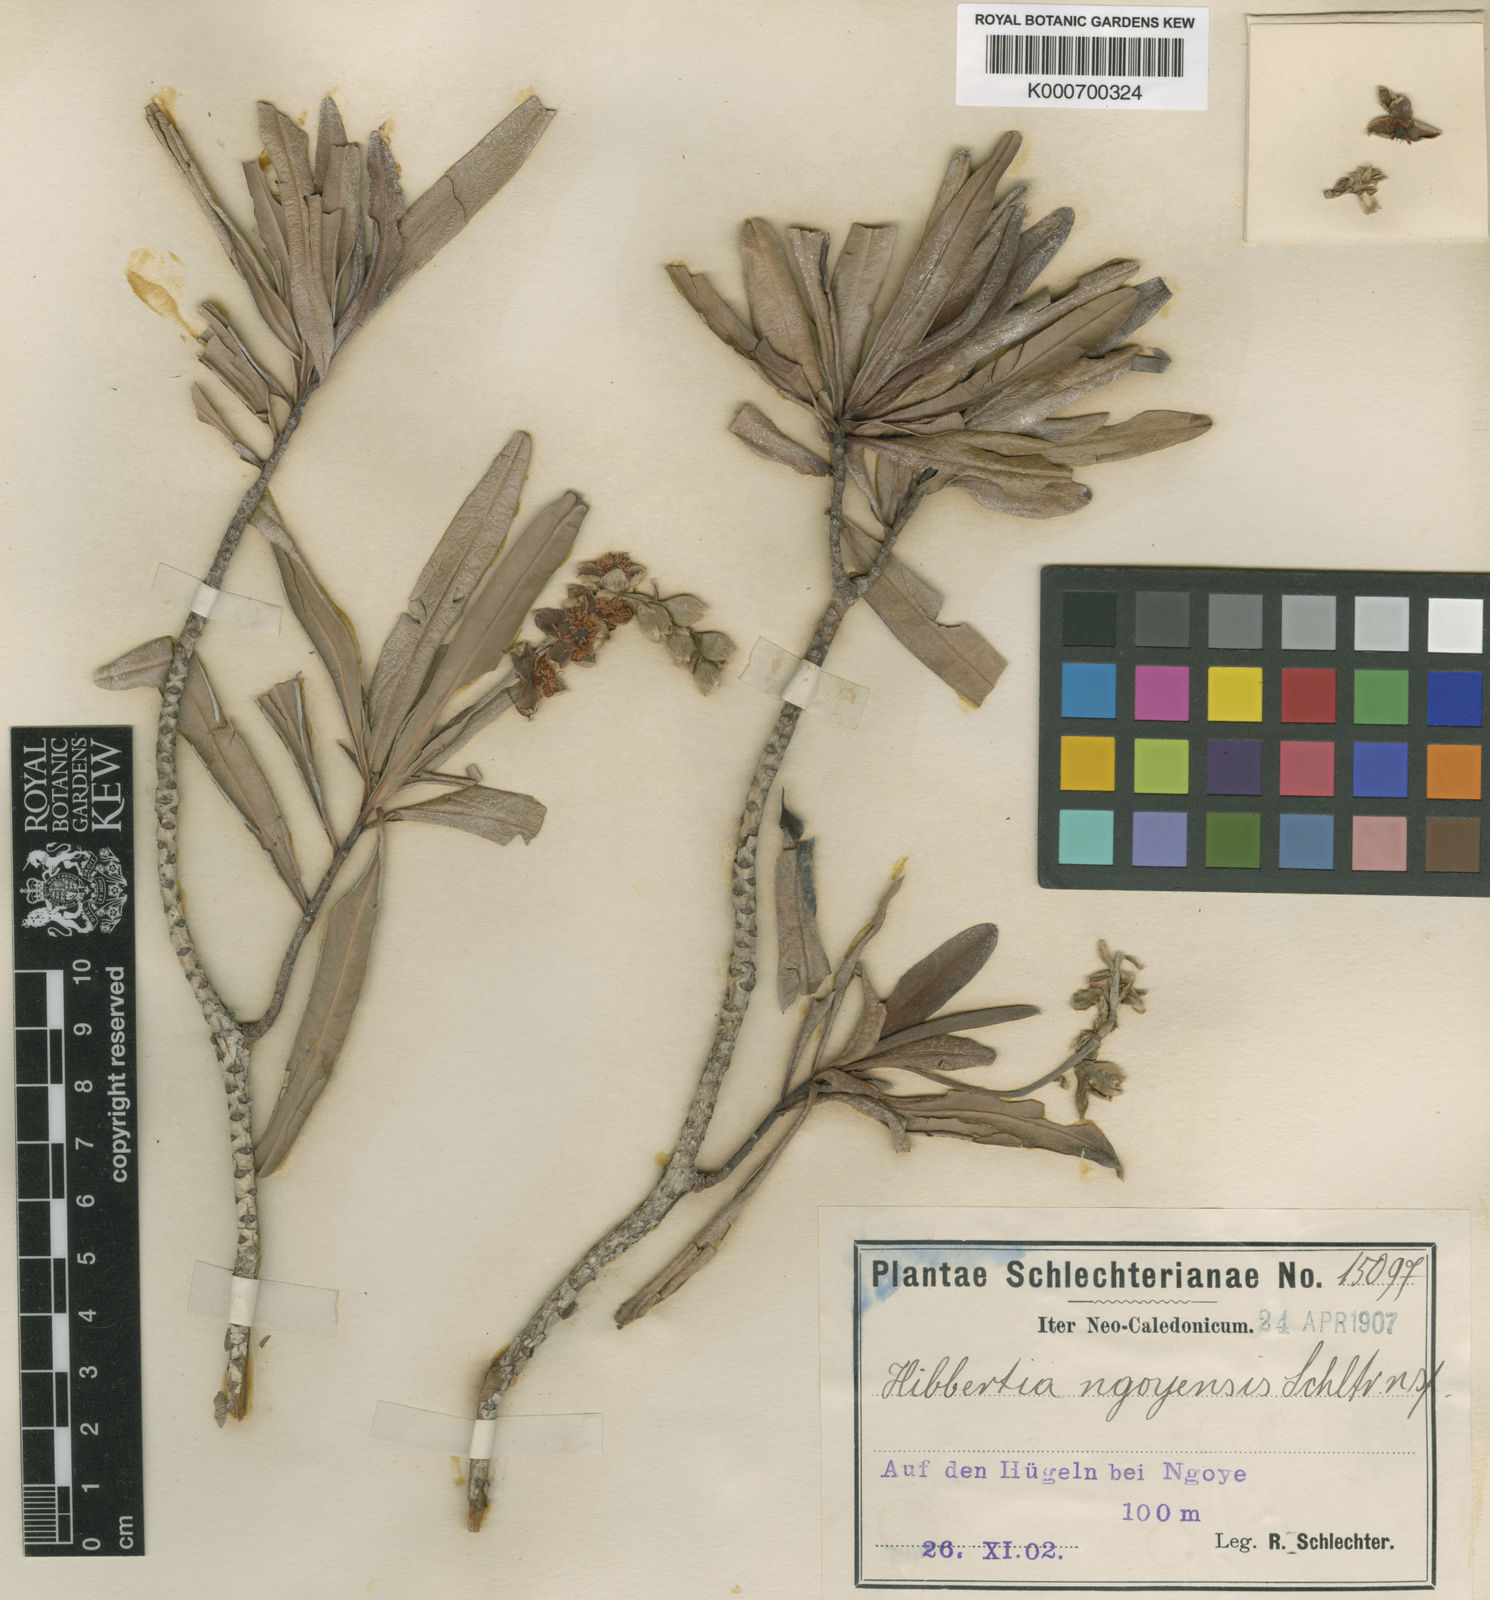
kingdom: Plantae
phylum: Tracheophyta
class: Magnoliopsida
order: Dilleniales
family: Dilleniaceae
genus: Hibbertia
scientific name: Hibbertia podocarpifolia
